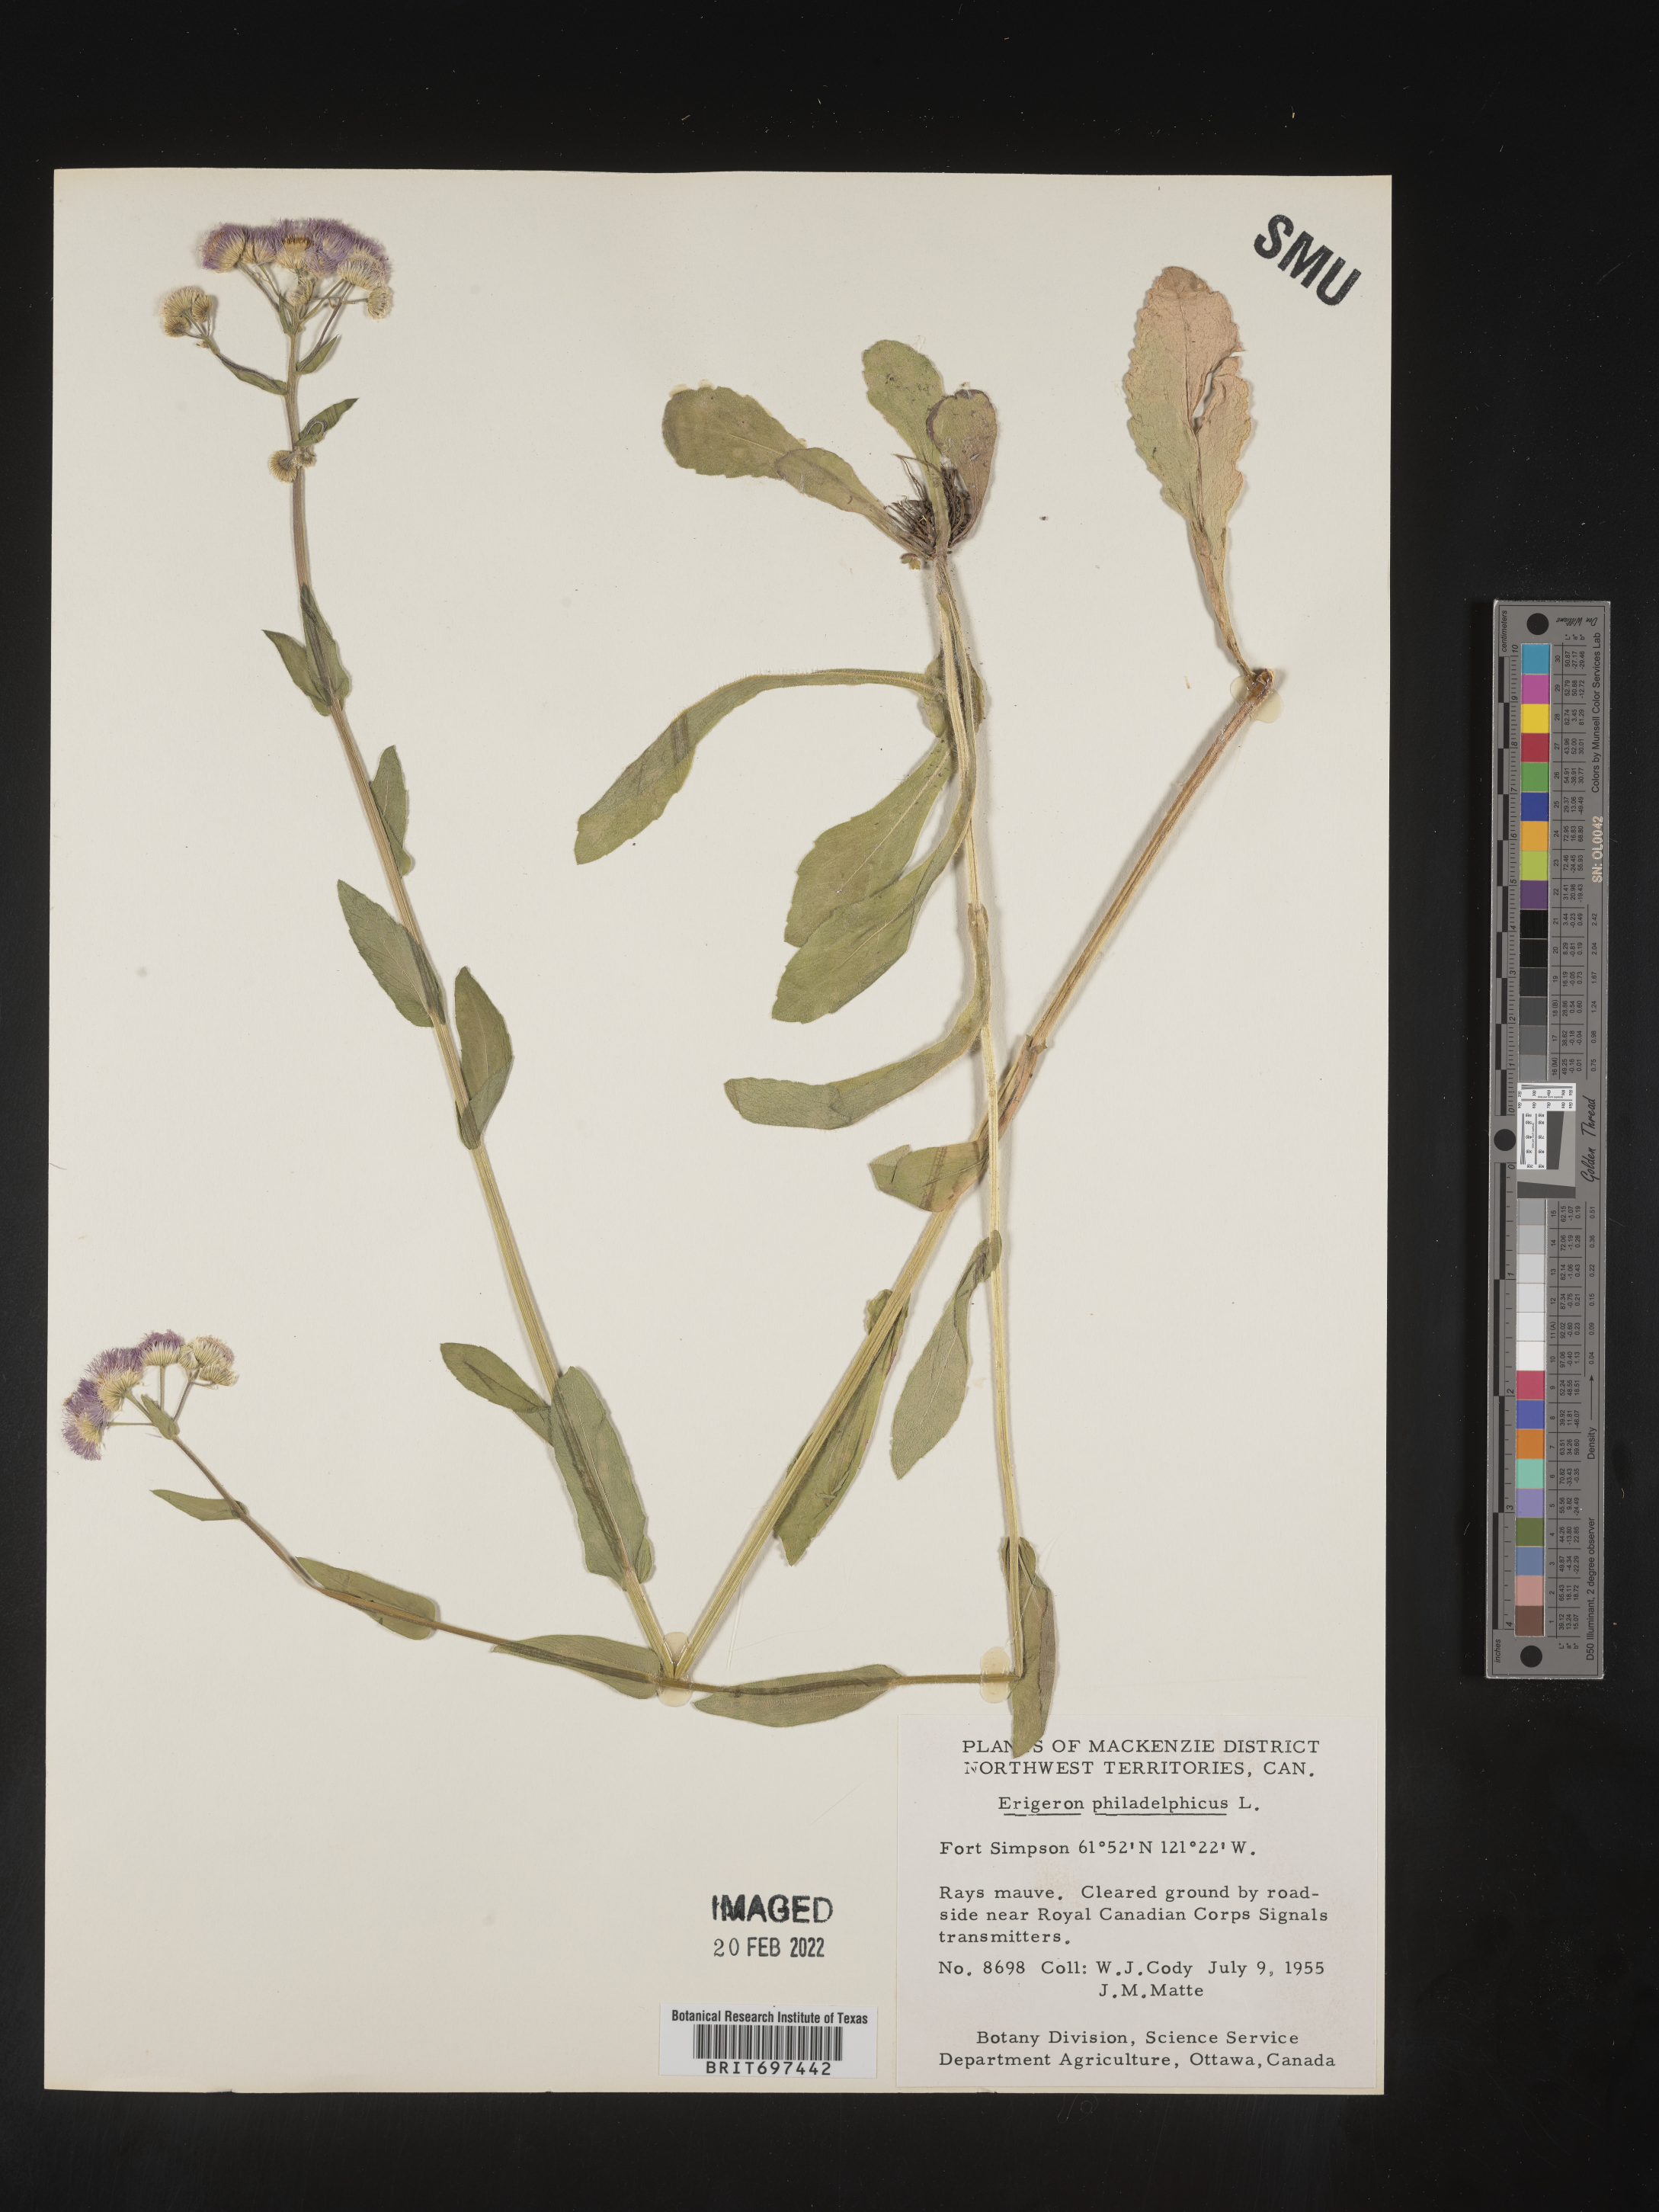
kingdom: Plantae
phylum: Tracheophyta
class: Magnoliopsida
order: Asterales
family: Asteraceae
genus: Erigeron
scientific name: Erigeron philadelphicus
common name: Robin's-plantain
